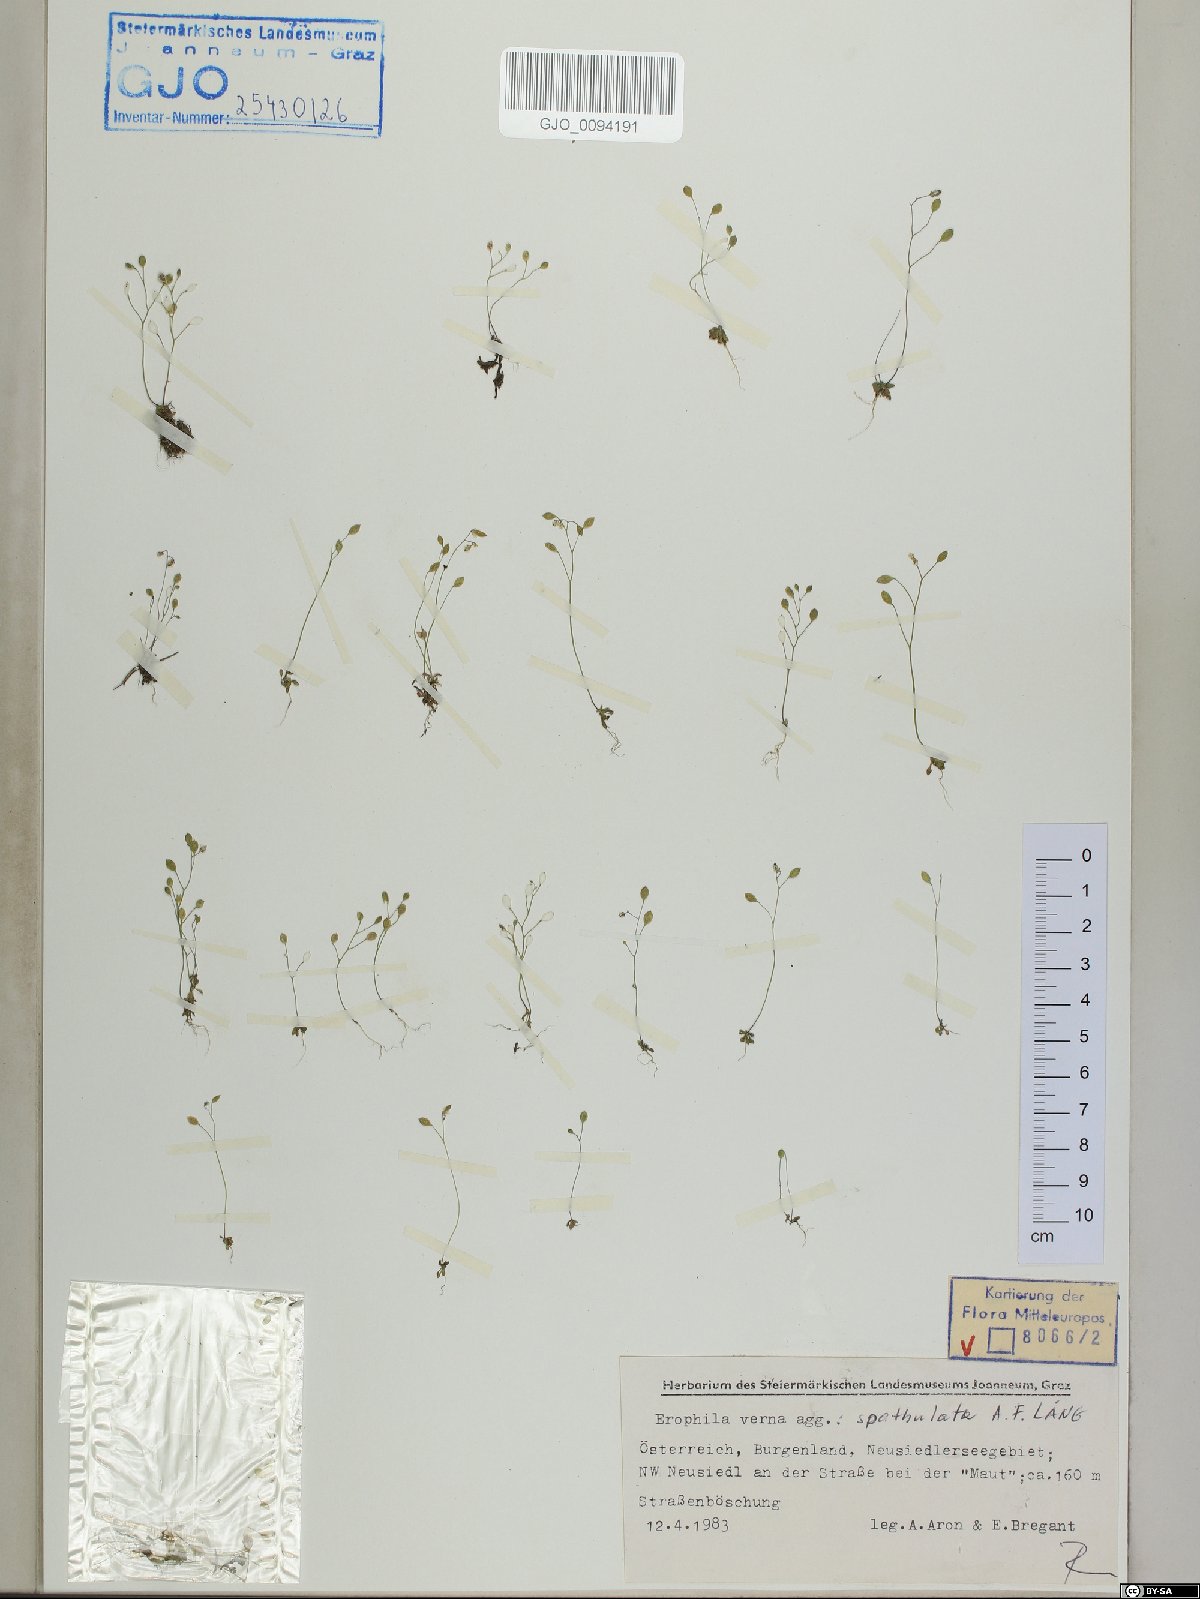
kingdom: Plantae
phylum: Tracheophyta
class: Magnoliopsida
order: Brassicales
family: Brassicaceae
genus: Draba
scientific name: Draba verna
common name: Spring draba
